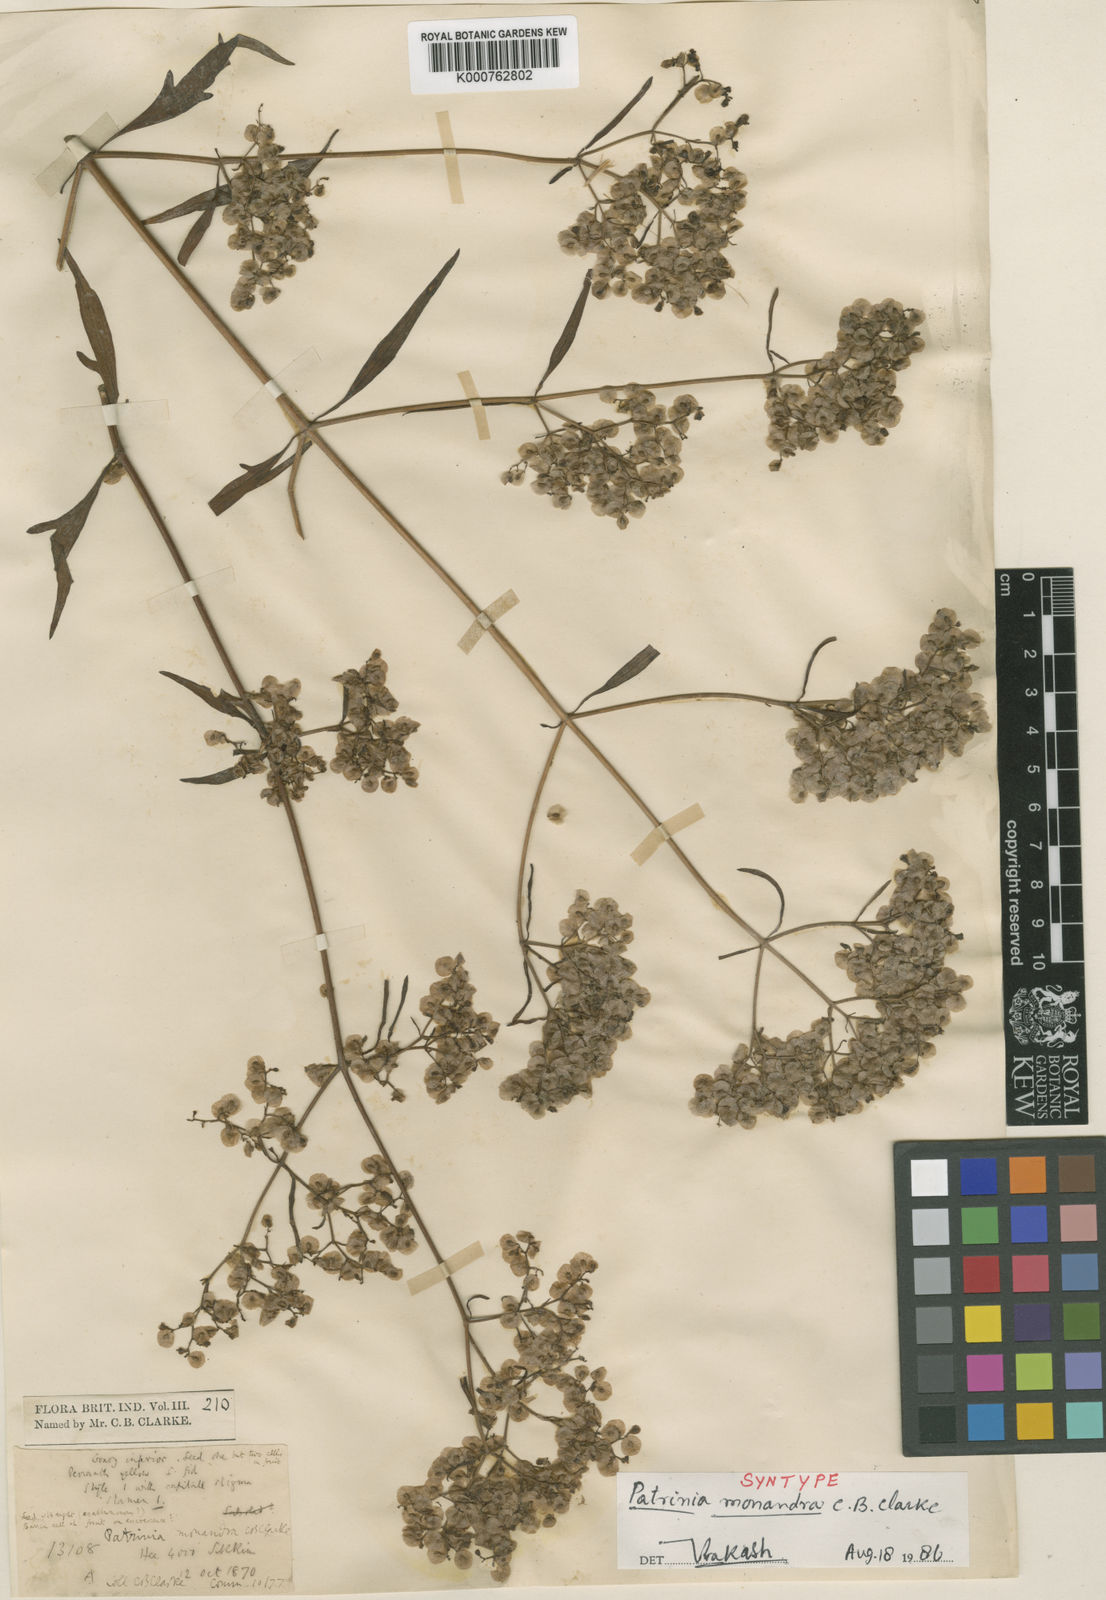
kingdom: Plantae
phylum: Tracheophyta
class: Magnoliopsida
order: Dipsacales
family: Caprifoliaceae
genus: Patrinia
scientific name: Patrinia monandra
